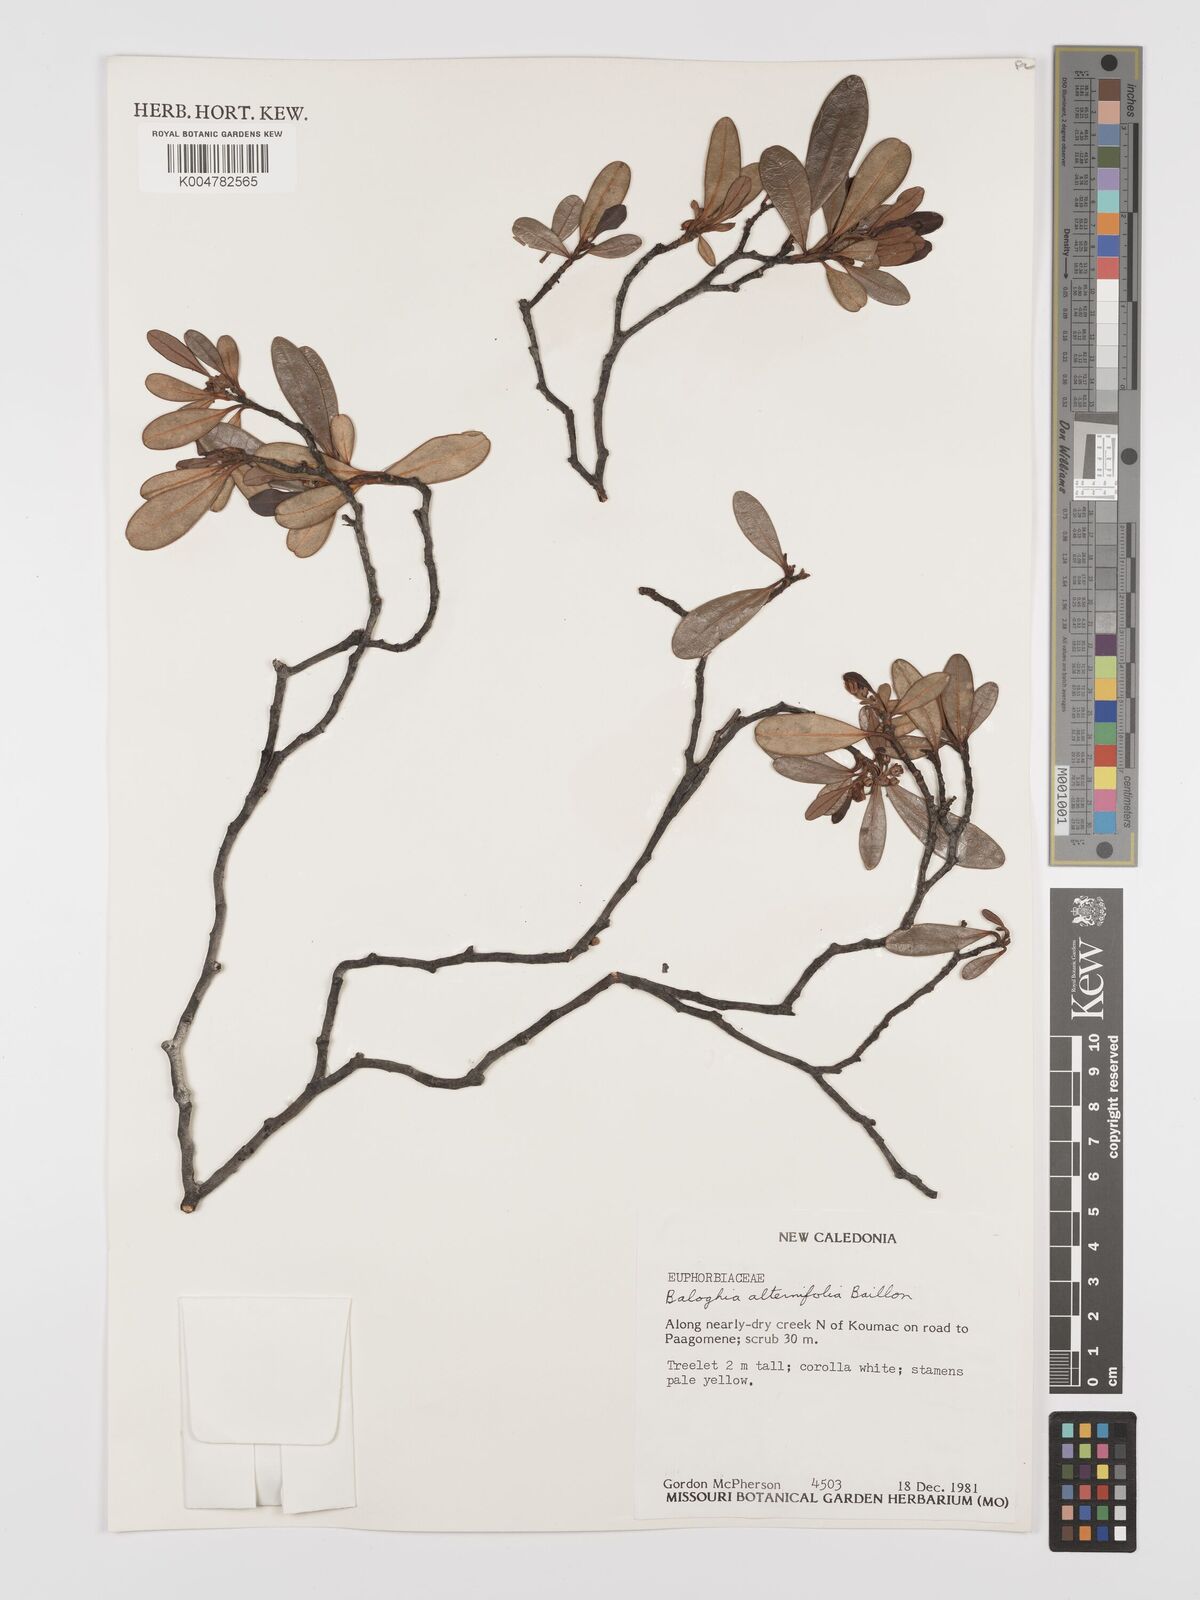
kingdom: Plantae
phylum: Tracheophyta
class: Magnoliopsida
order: Malpighiales
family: Euphorbiaceae
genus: Baloghia
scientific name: Baloghia alternifolia
